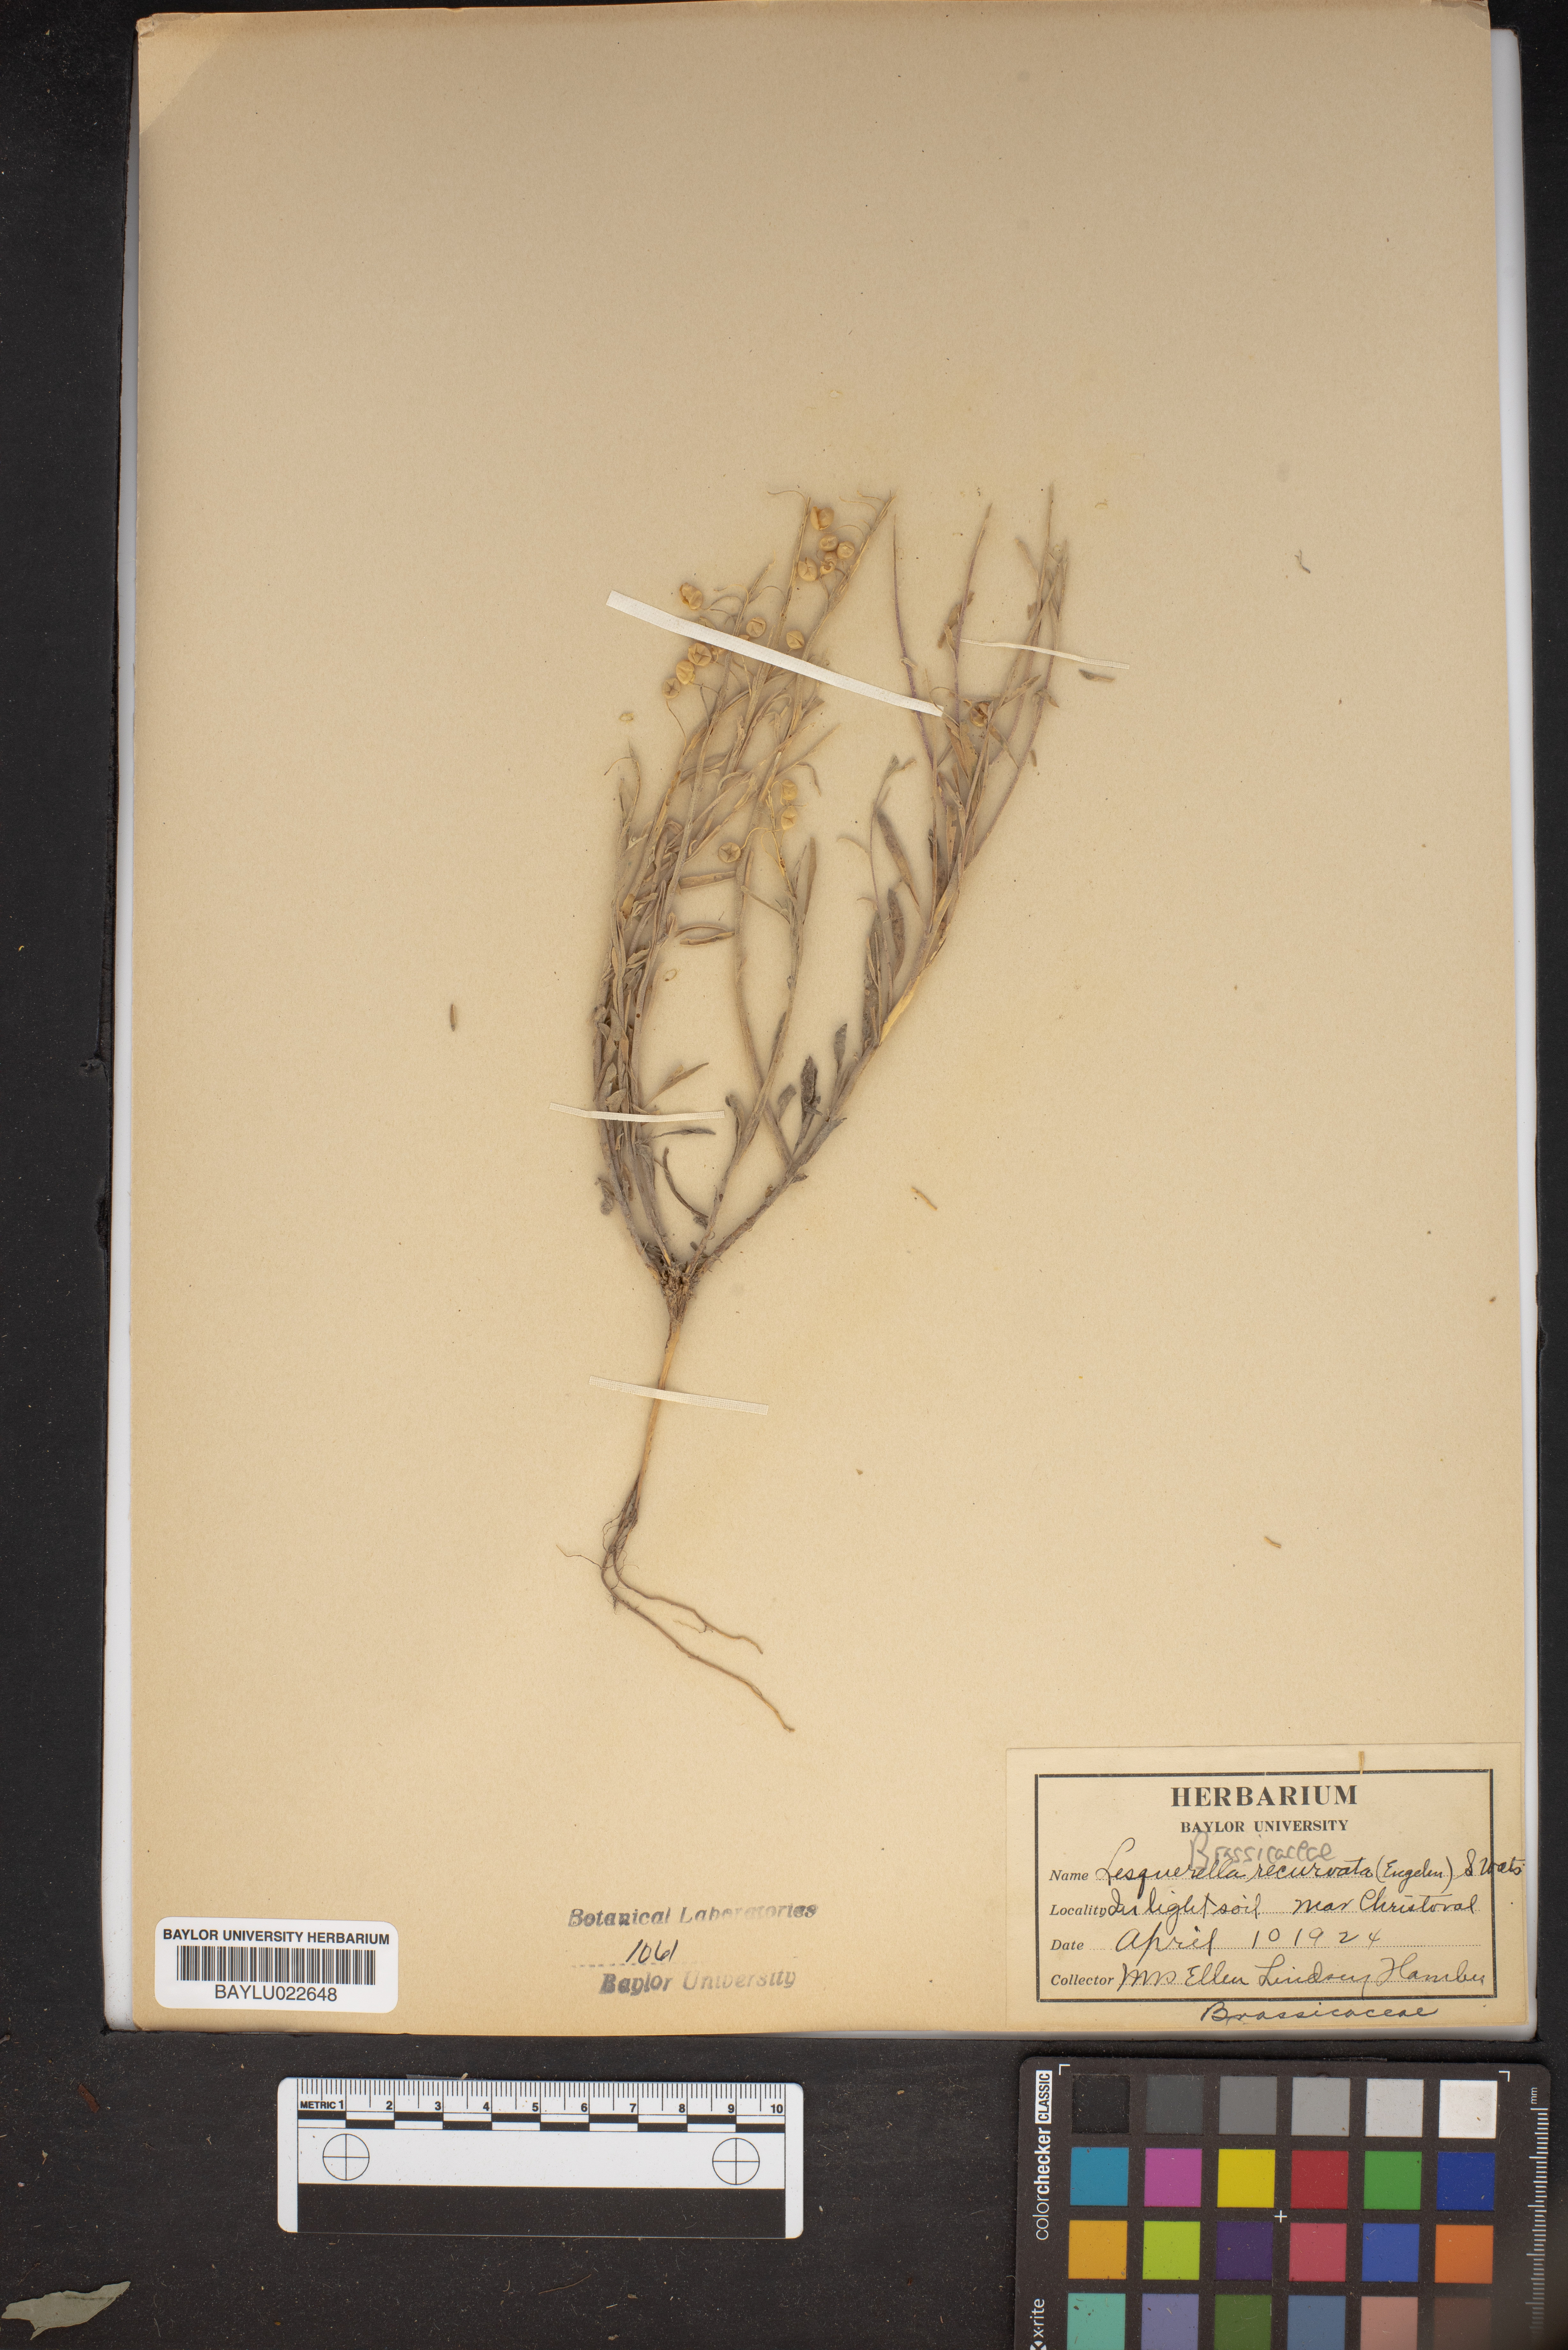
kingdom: Plantae
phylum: Tracheophyta
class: Magnoliopsida
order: Brassicales
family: Brassicaceae
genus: Physaria
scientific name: Physaria recurvata
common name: Gaslight bladderpod
